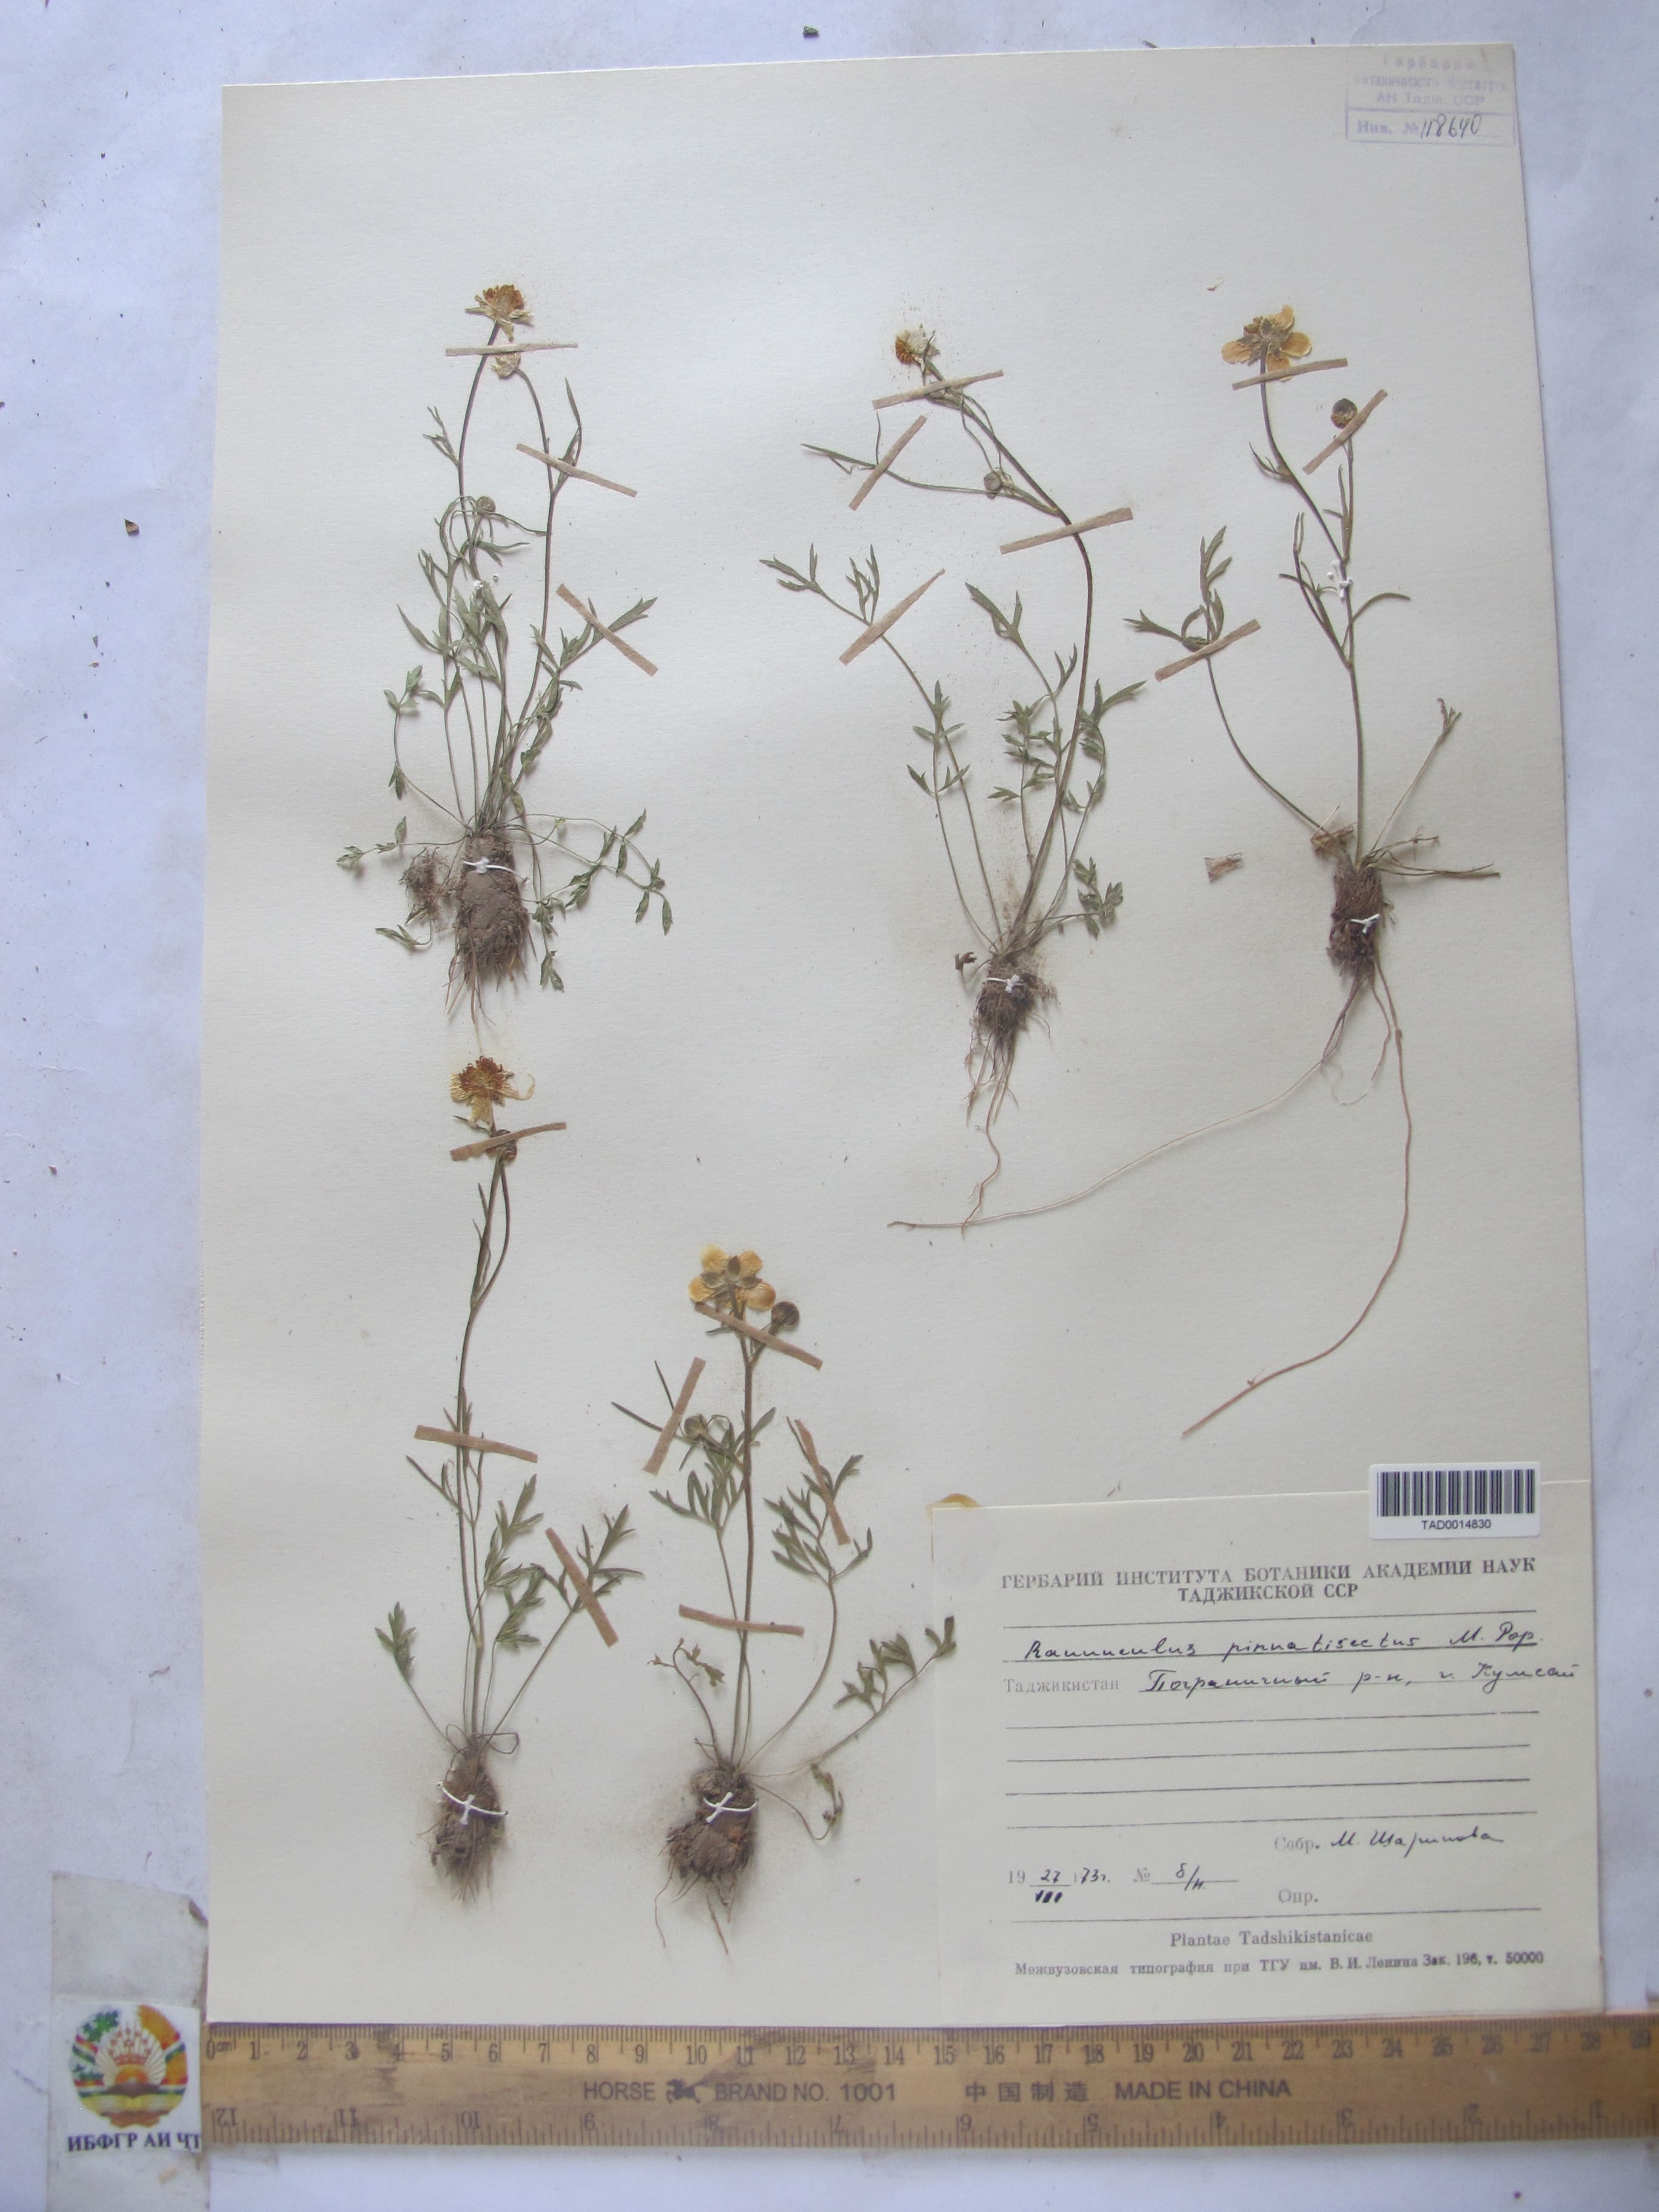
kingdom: Plantae
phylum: Tracheophyta
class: Magnoliopsida
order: Ranunculales
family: Ranunculaceae
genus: Ranunculus
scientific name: Ranunculus pinnatisectus
